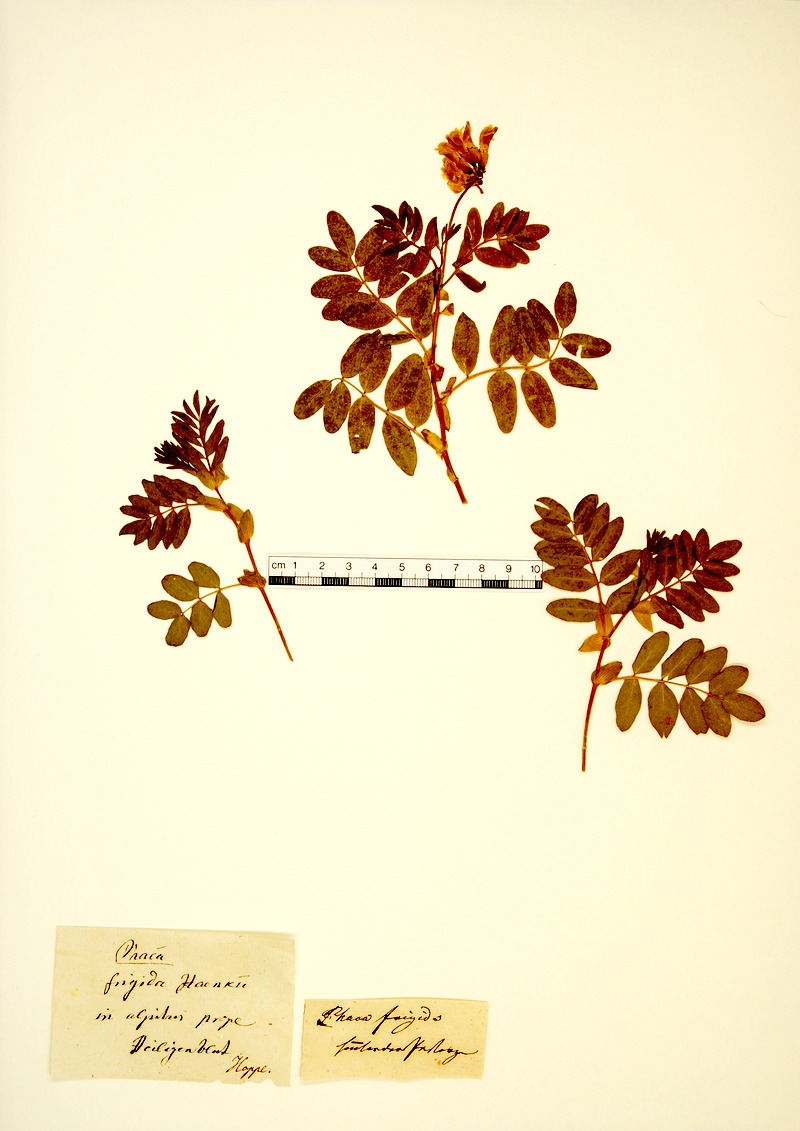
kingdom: Plantae
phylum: Tracheophyta
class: Magnoliopsida
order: Fabales
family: Fabaceae
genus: Astragalus
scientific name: Astragalus frigidus
